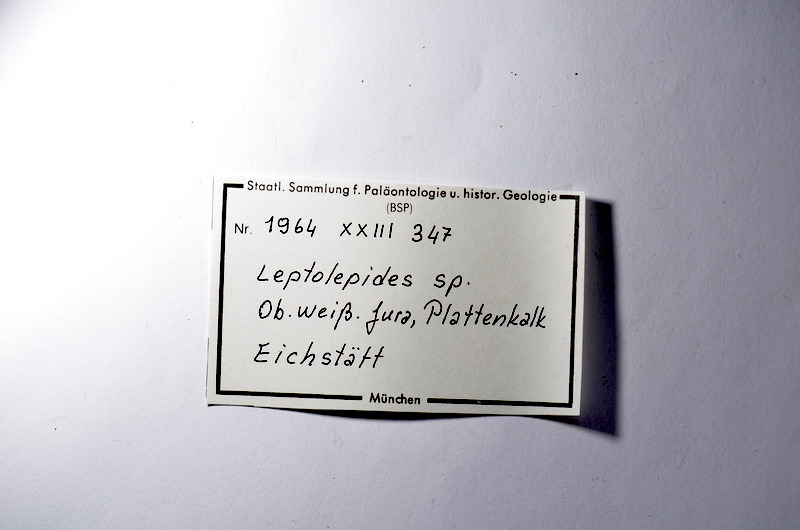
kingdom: Animalia
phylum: Chordata
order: Salmoniformes
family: Orthogonikleithridae
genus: Leptolepides
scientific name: Leptolepides
